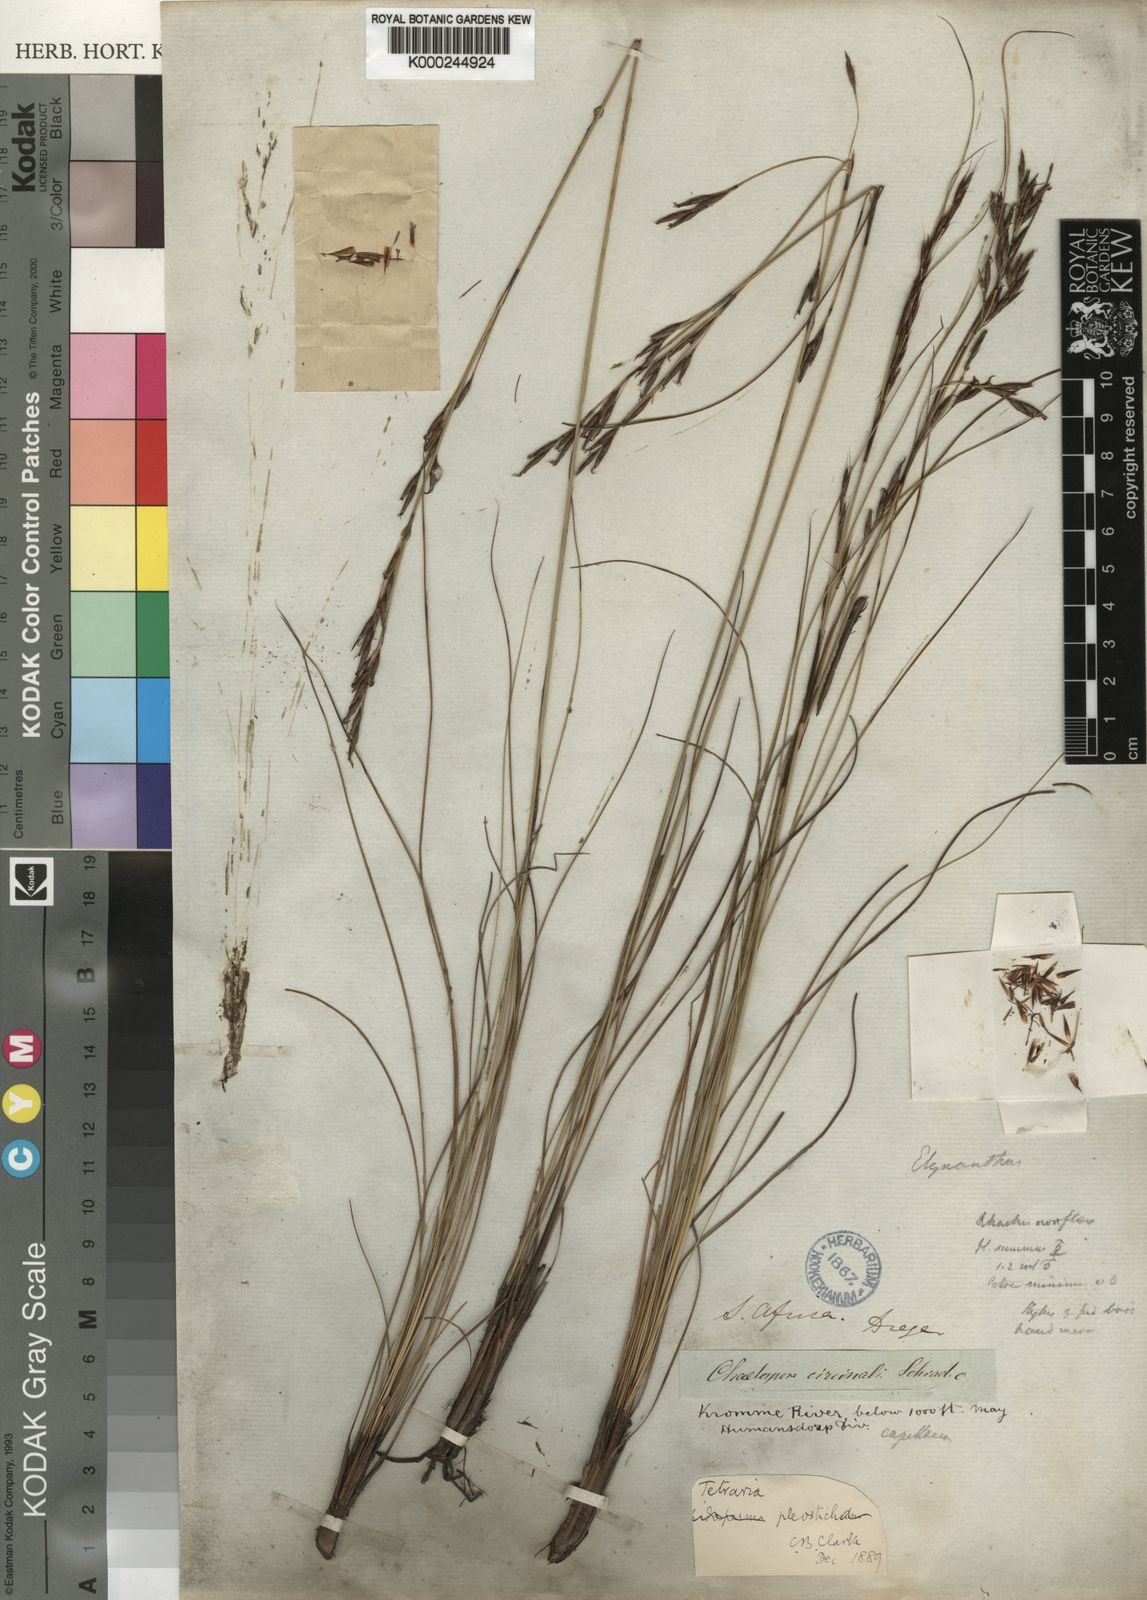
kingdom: Plantae
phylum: Tracheophyta
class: Liliopsida
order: Poales
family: Cyperaceae
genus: Tetraria
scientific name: Tetraria pleosticha
